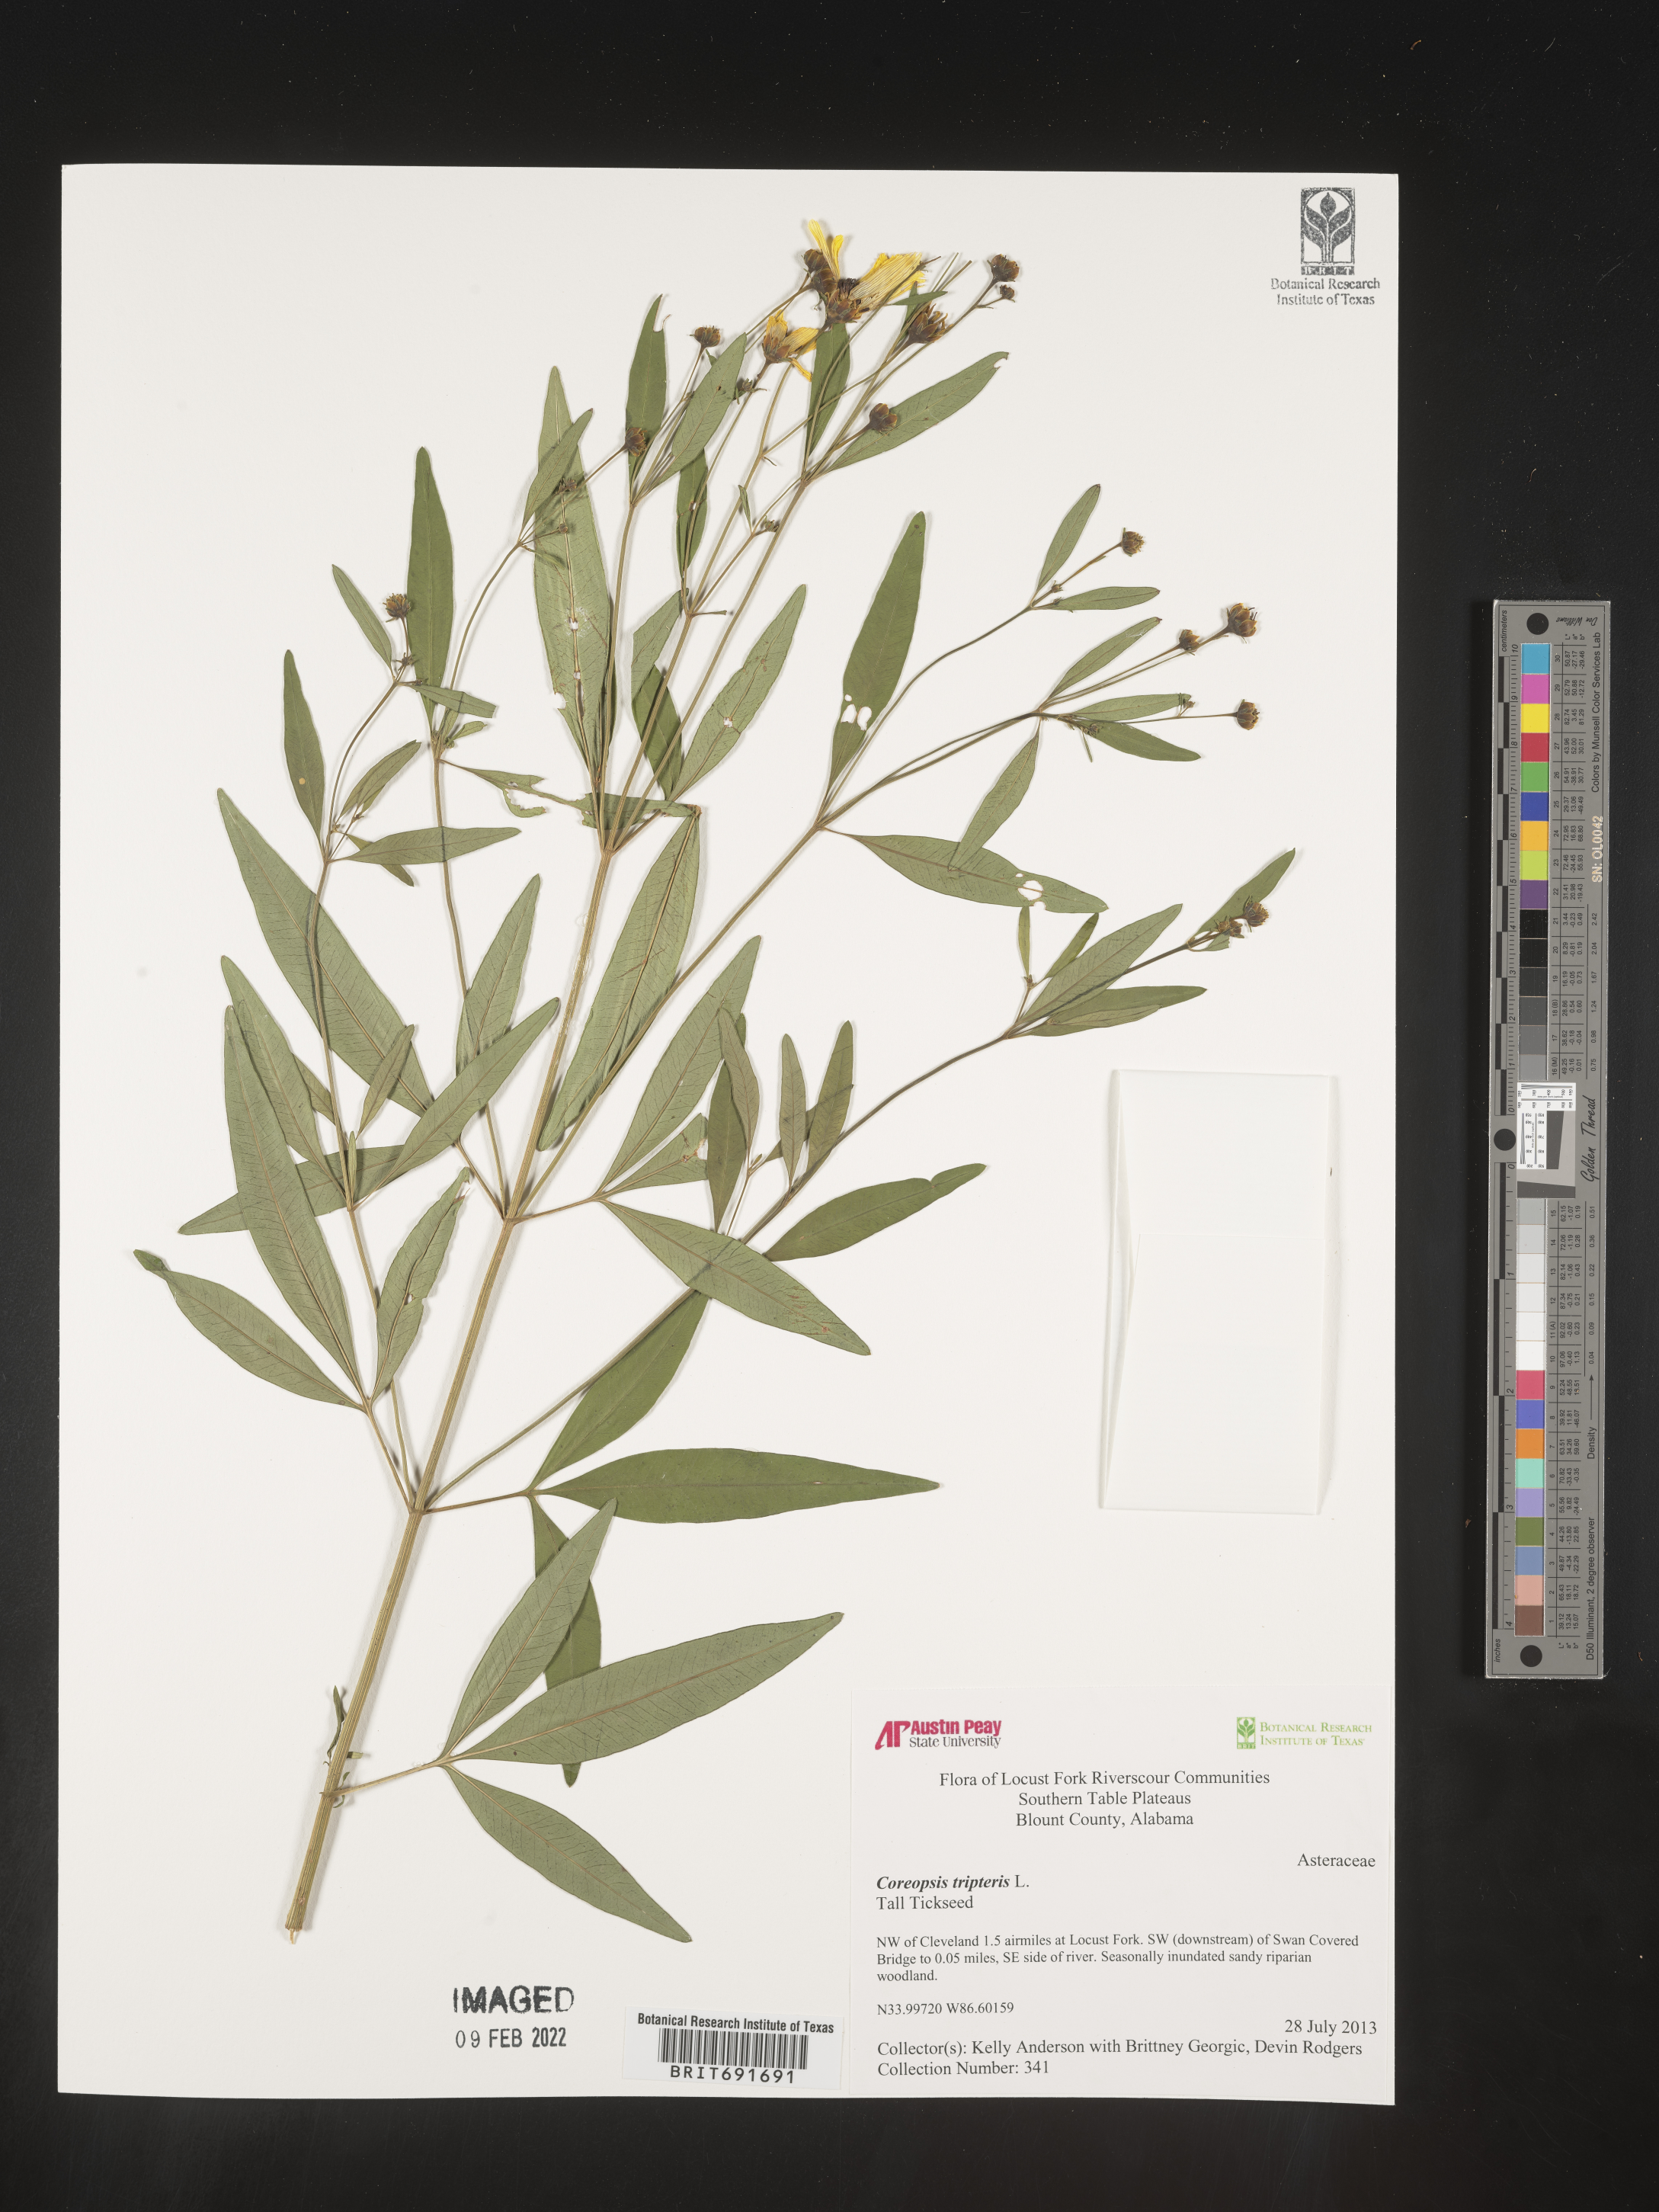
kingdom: Plantae
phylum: Tracheophyta
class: Magnoliopsida
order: Asterales
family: Asteraceae
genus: Coreopsis
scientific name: Coreopsis tripteris
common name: Tall coreopsis
